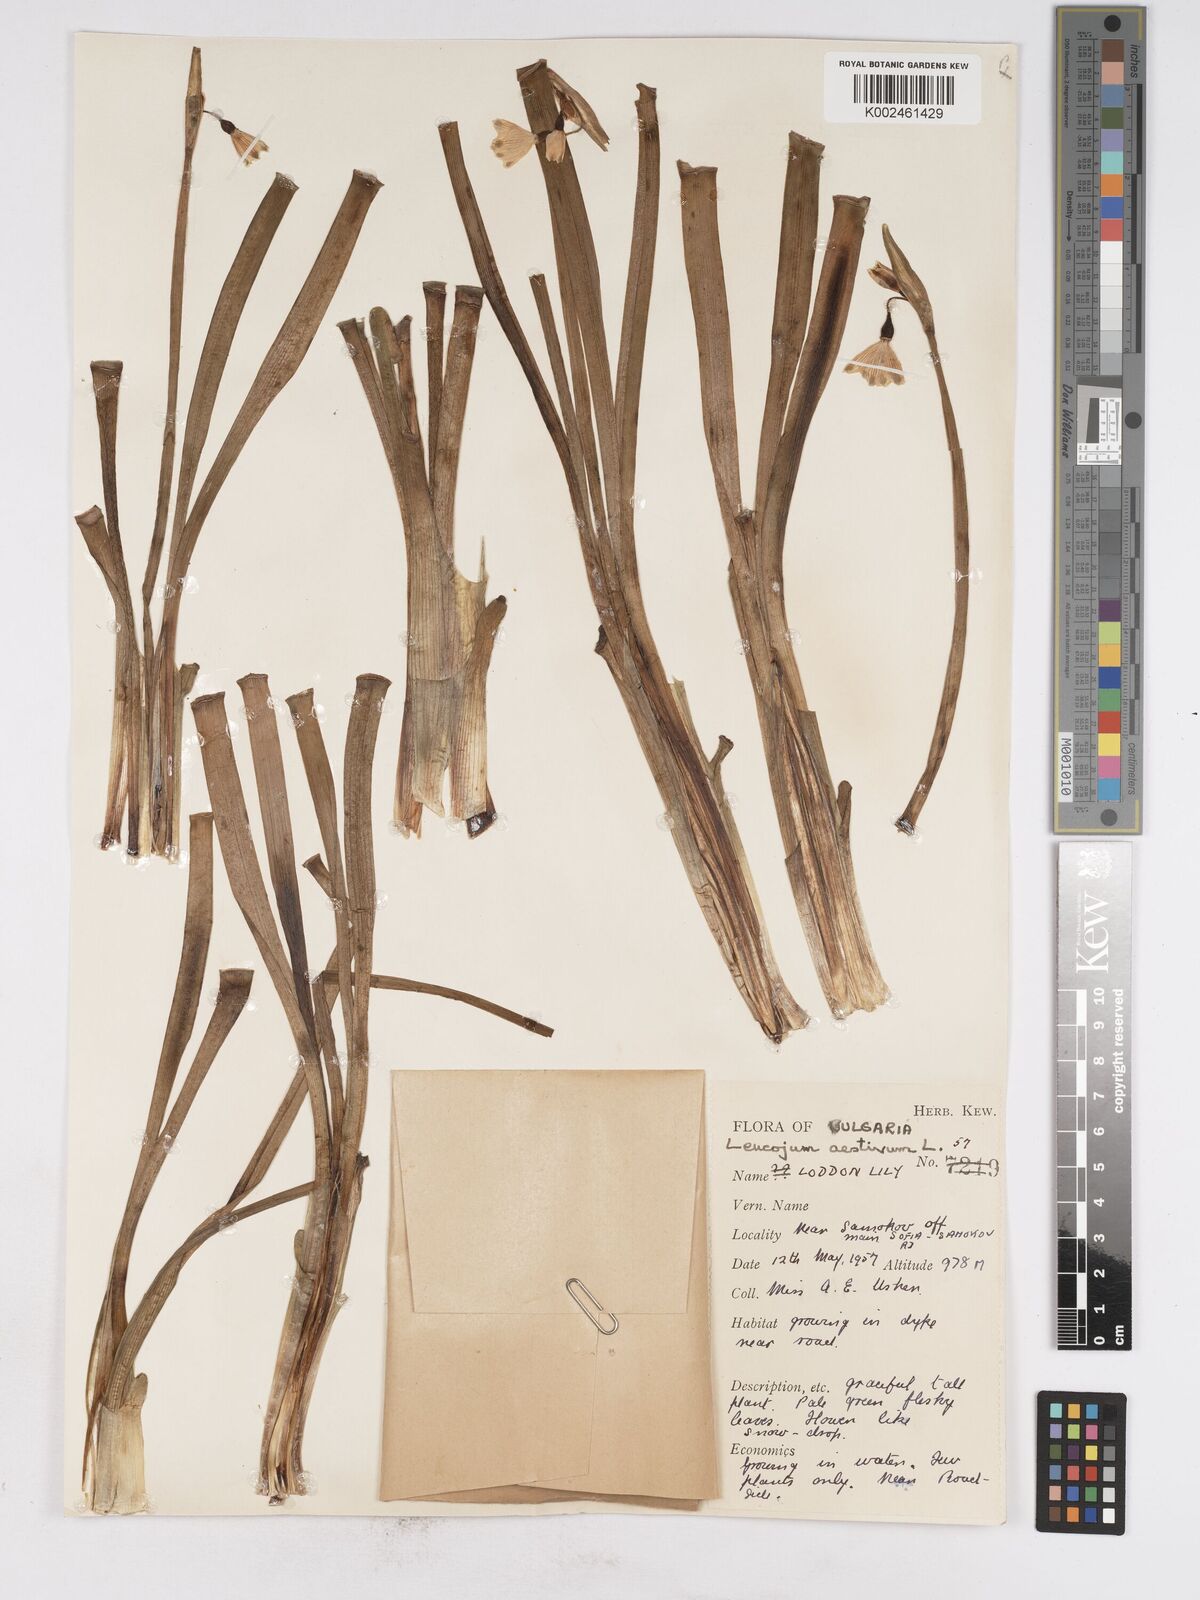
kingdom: Plantae
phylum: Tracheophyta
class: Liliopsida
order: Asparagales
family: Amaryllidaceae
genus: Leucojum
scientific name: Leucojum aestivum
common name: Summer snowflake
